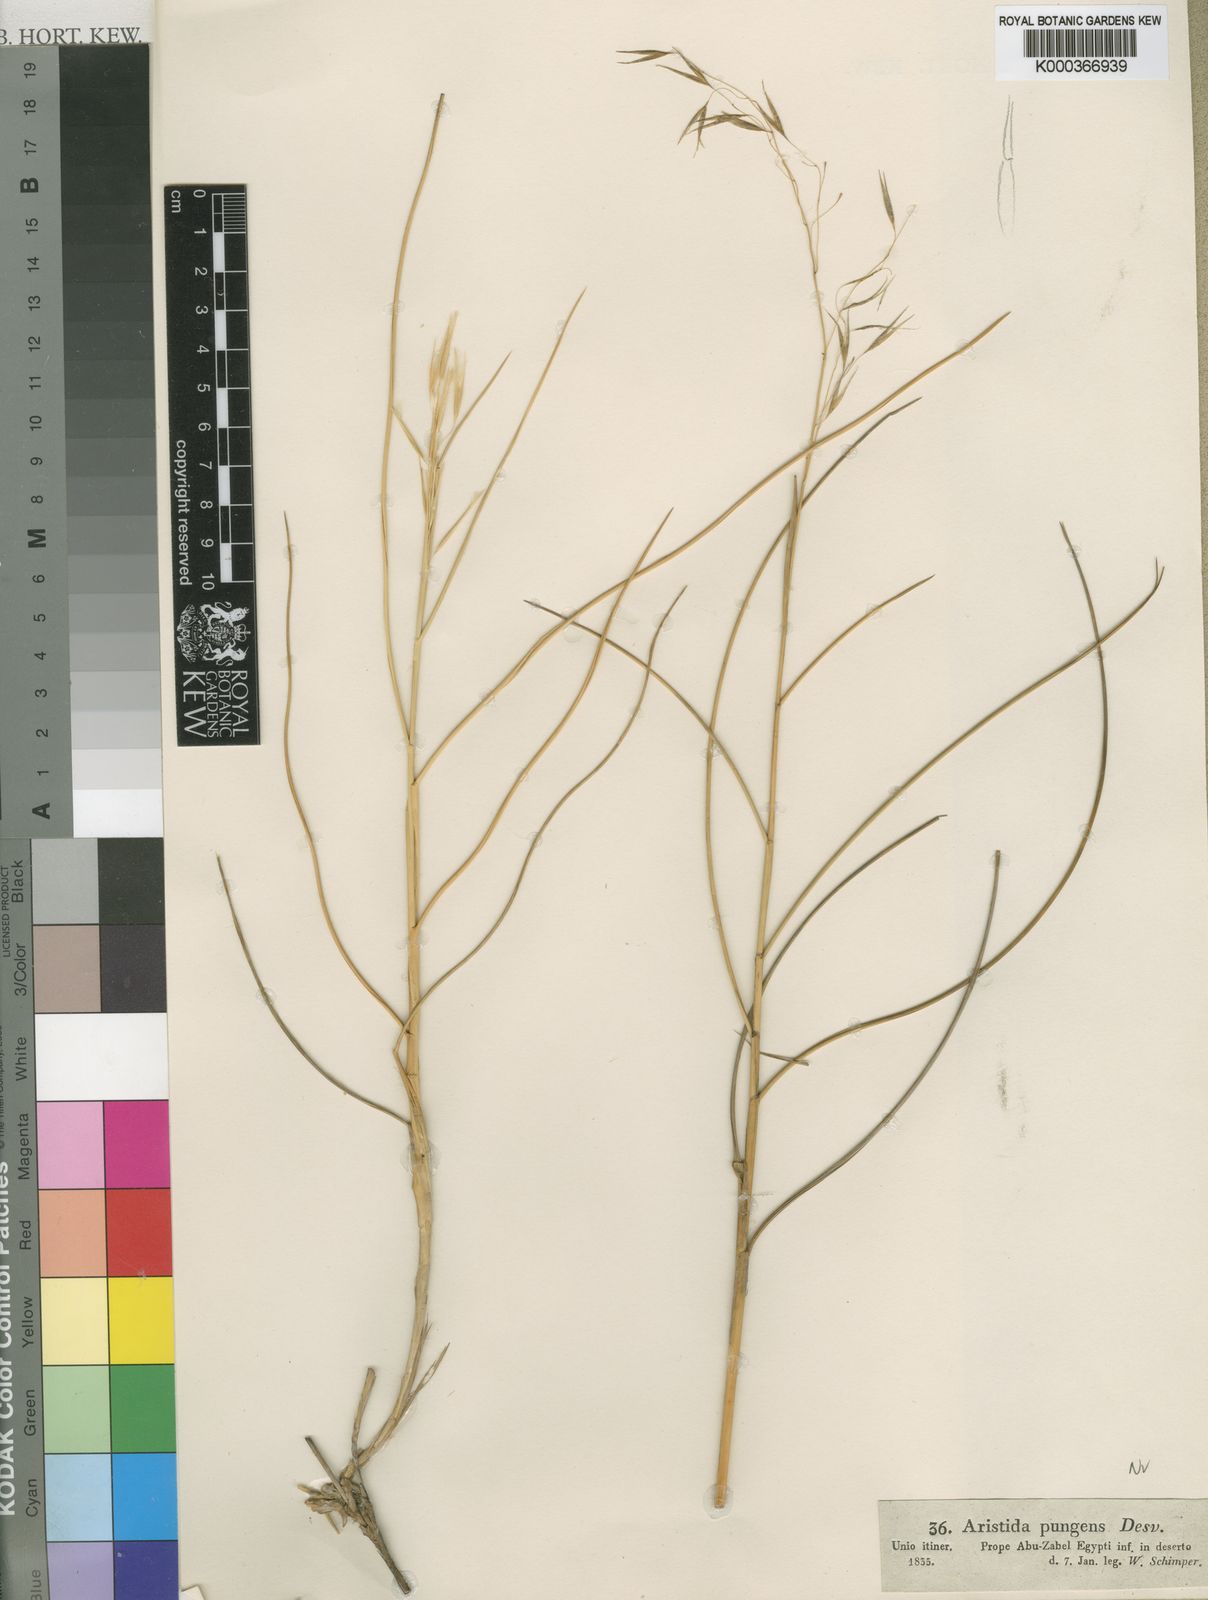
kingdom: Plantae
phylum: Tracheophyta
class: Liliopsida
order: Poales
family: Poaceae
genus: Stipagrostis
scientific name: Stipagrostis scoparia
